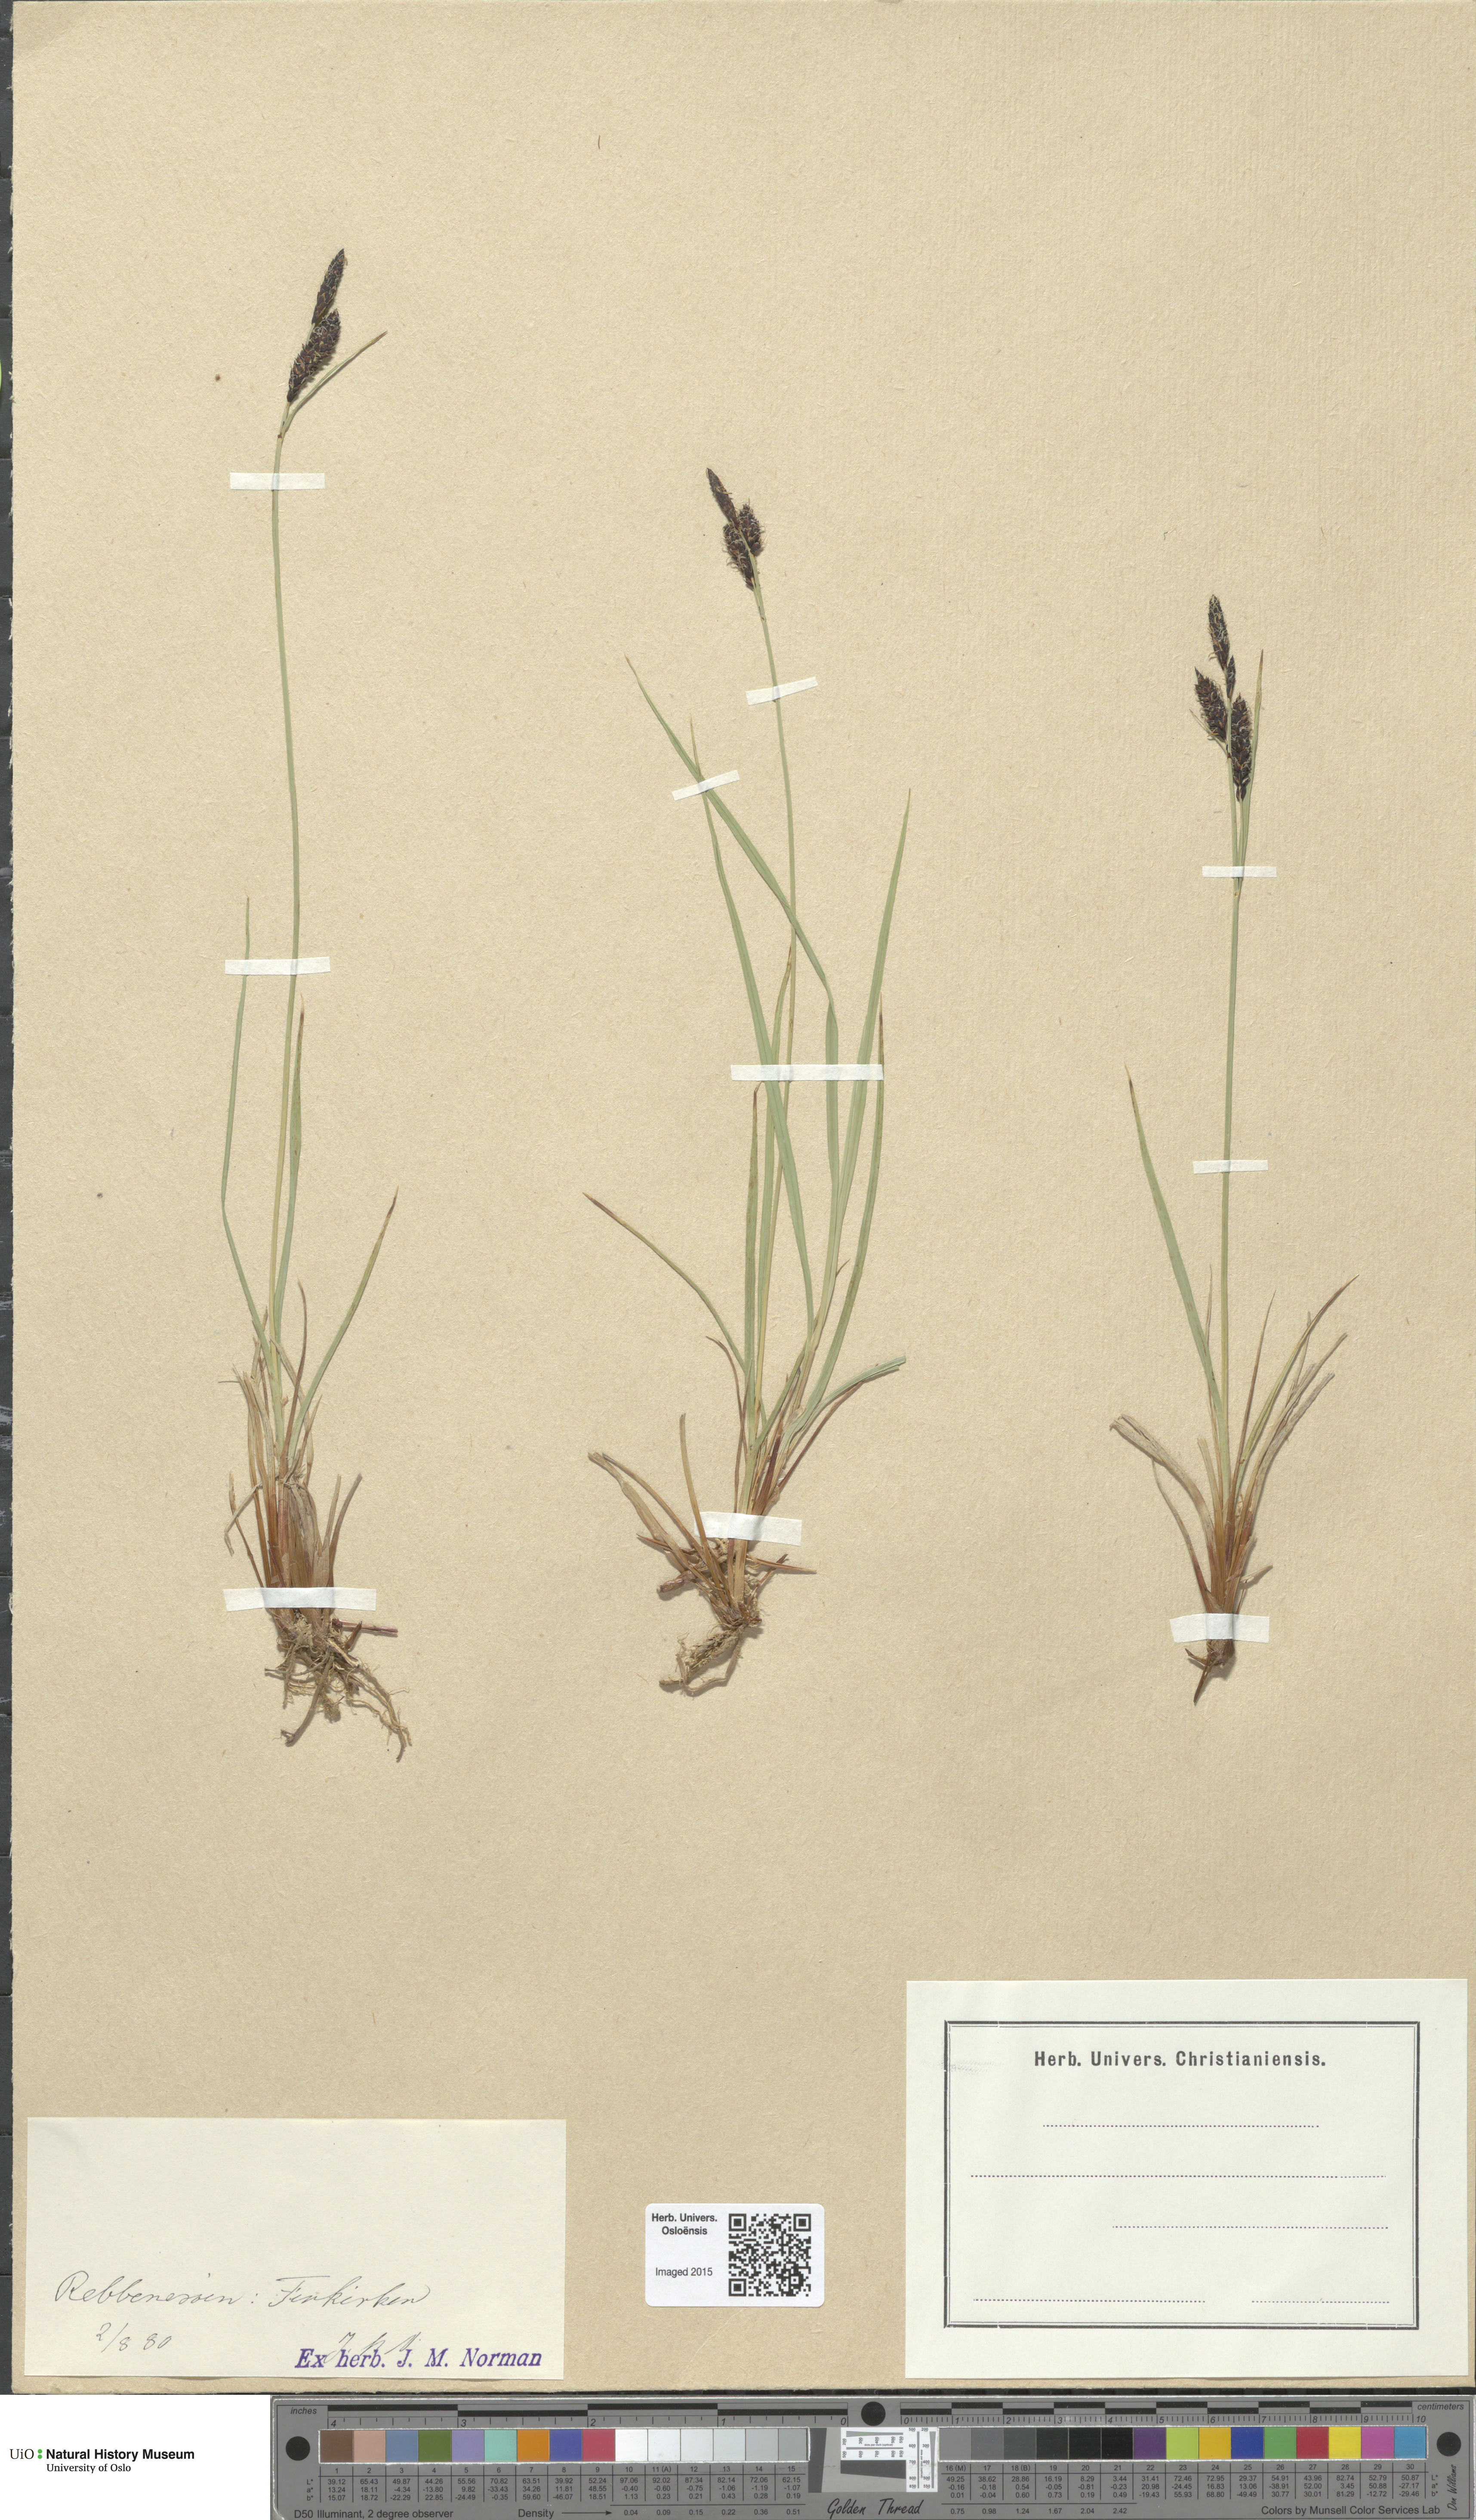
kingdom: Plantae
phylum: Tracheophyta
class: Liliopsida
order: Poales
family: Cyperaceae
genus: Carex
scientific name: Carex nigra
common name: Common sedge
